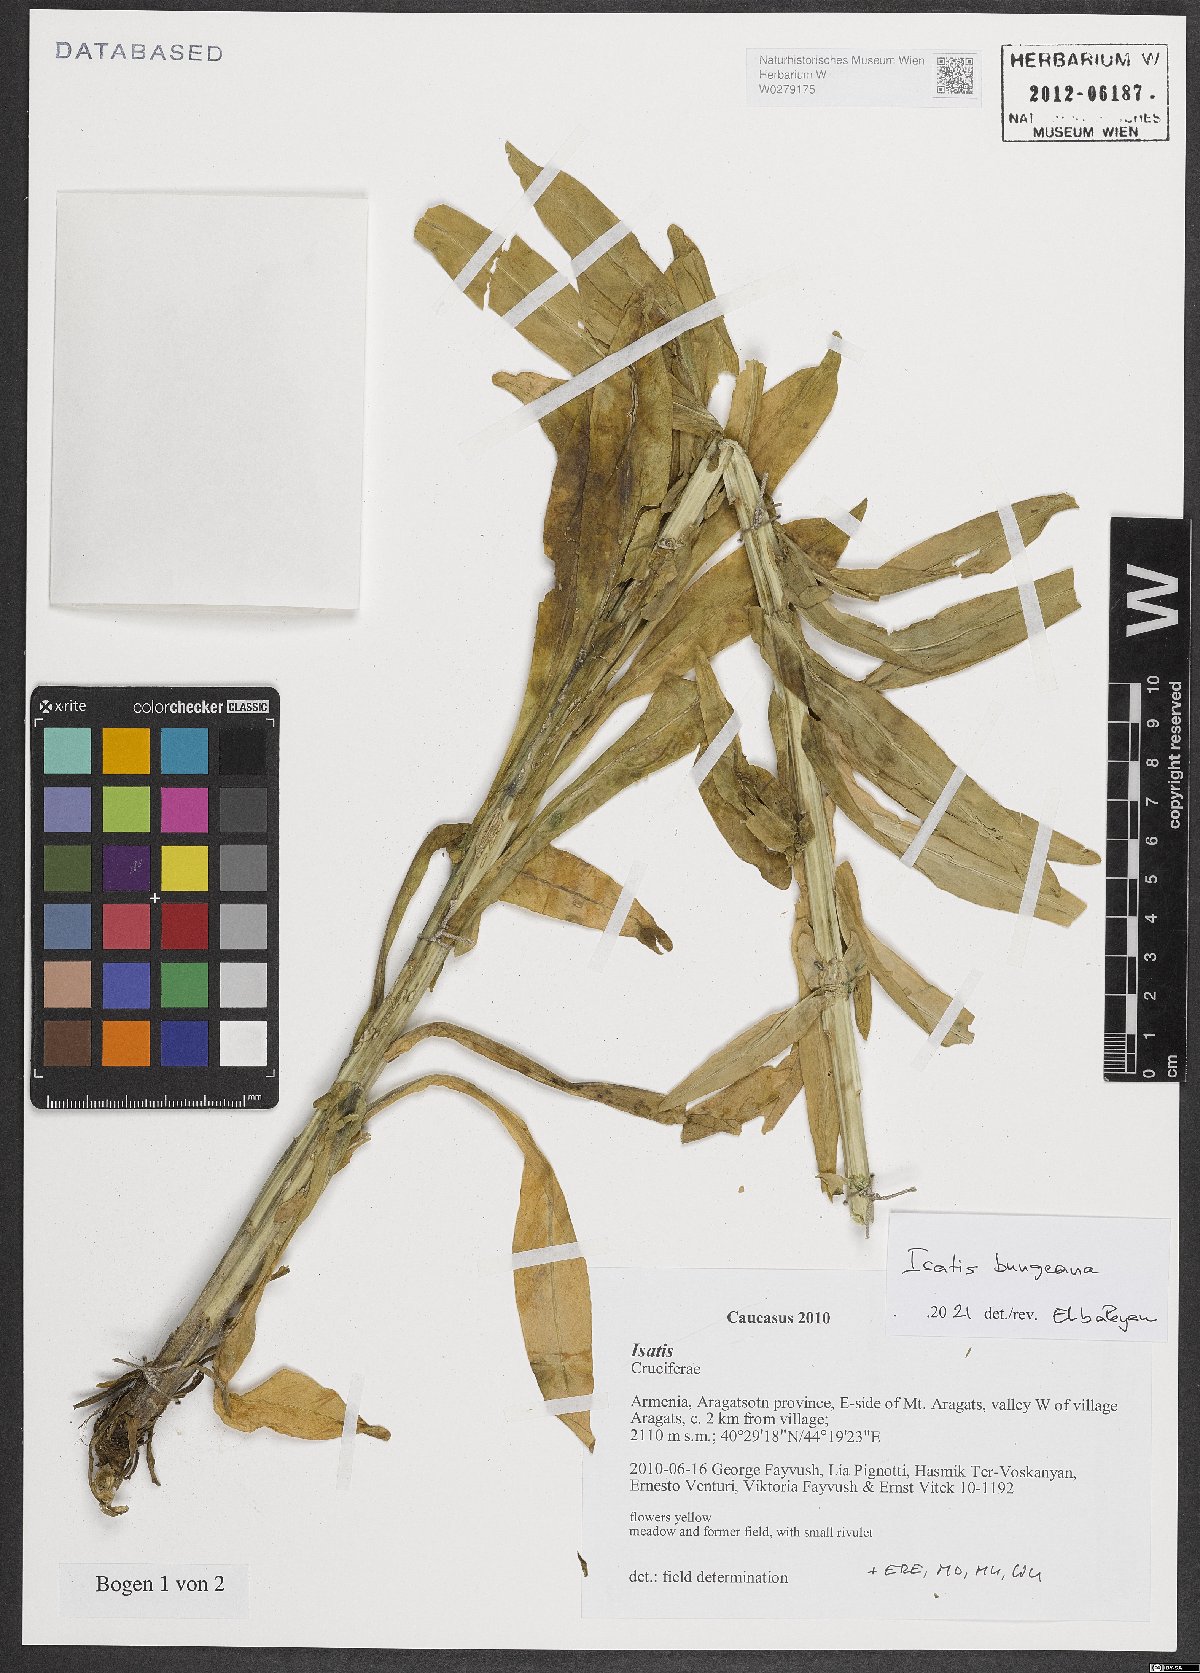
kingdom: Plantae
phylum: Tracheophyta
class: Magnoliopsida
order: Brassicales
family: Brassicaceae
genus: Isatis
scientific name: Isatis bungeana
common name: Bunge's woad
